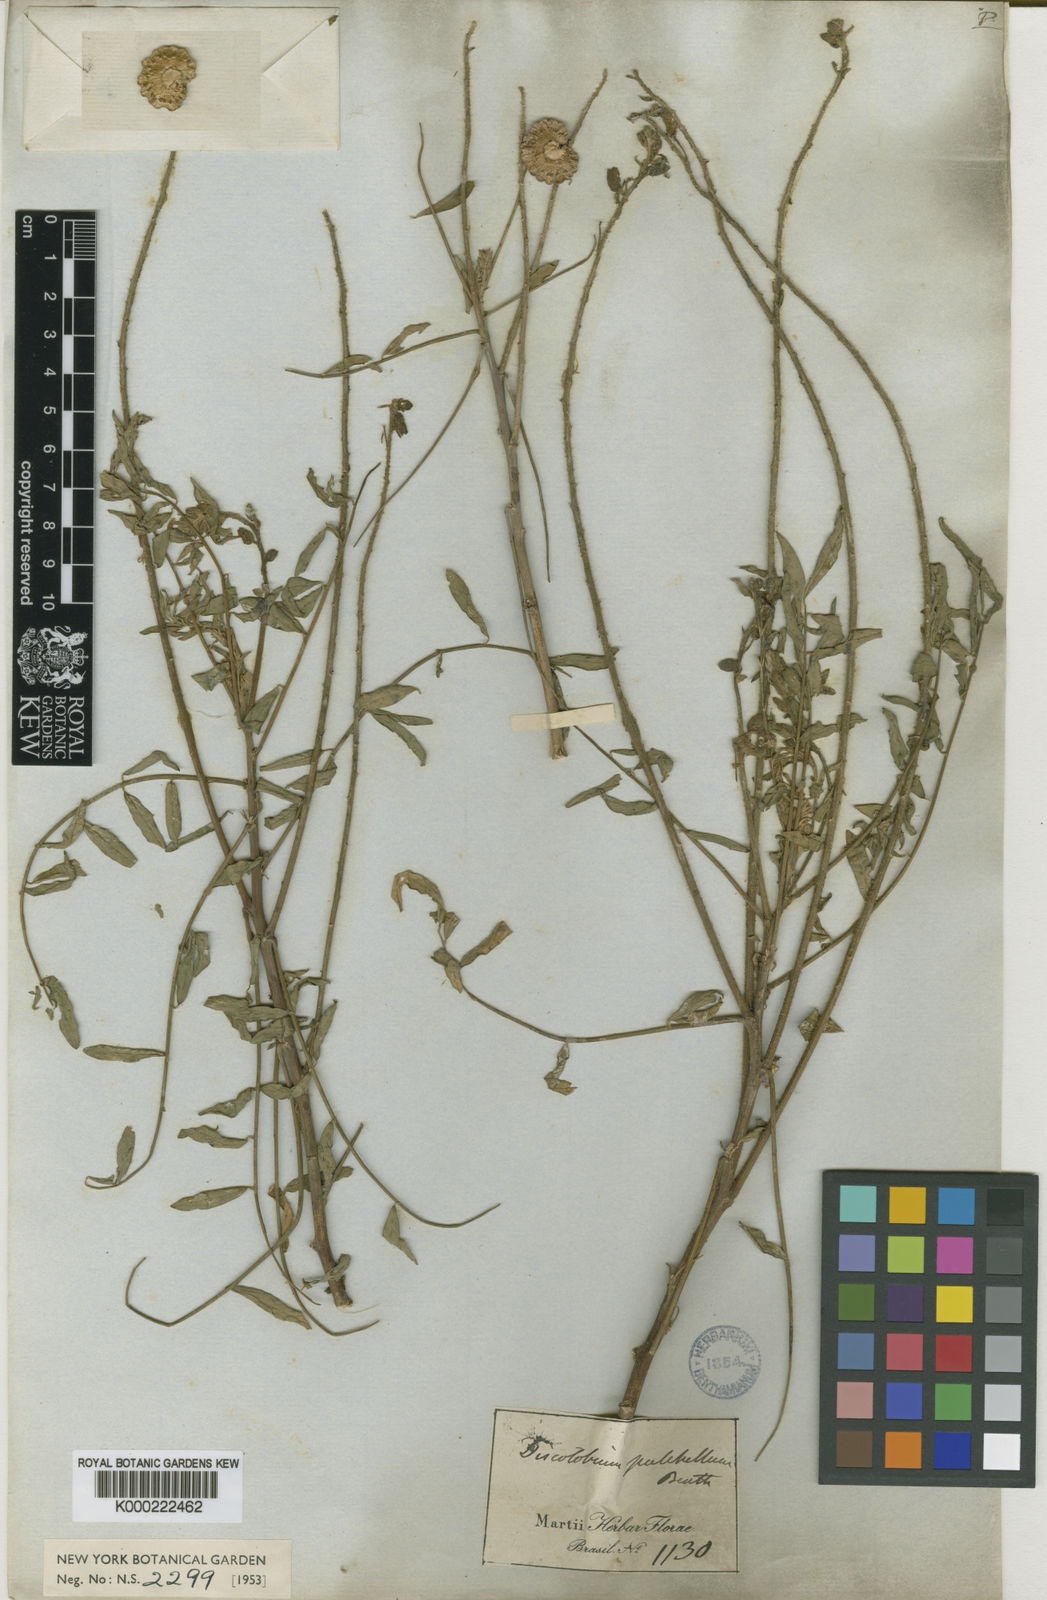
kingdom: Plantae
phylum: Tracheophyta
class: Magnoliopsida
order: Fabales
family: Fabaceae
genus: Discolobium
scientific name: Discolobium pulchellum
